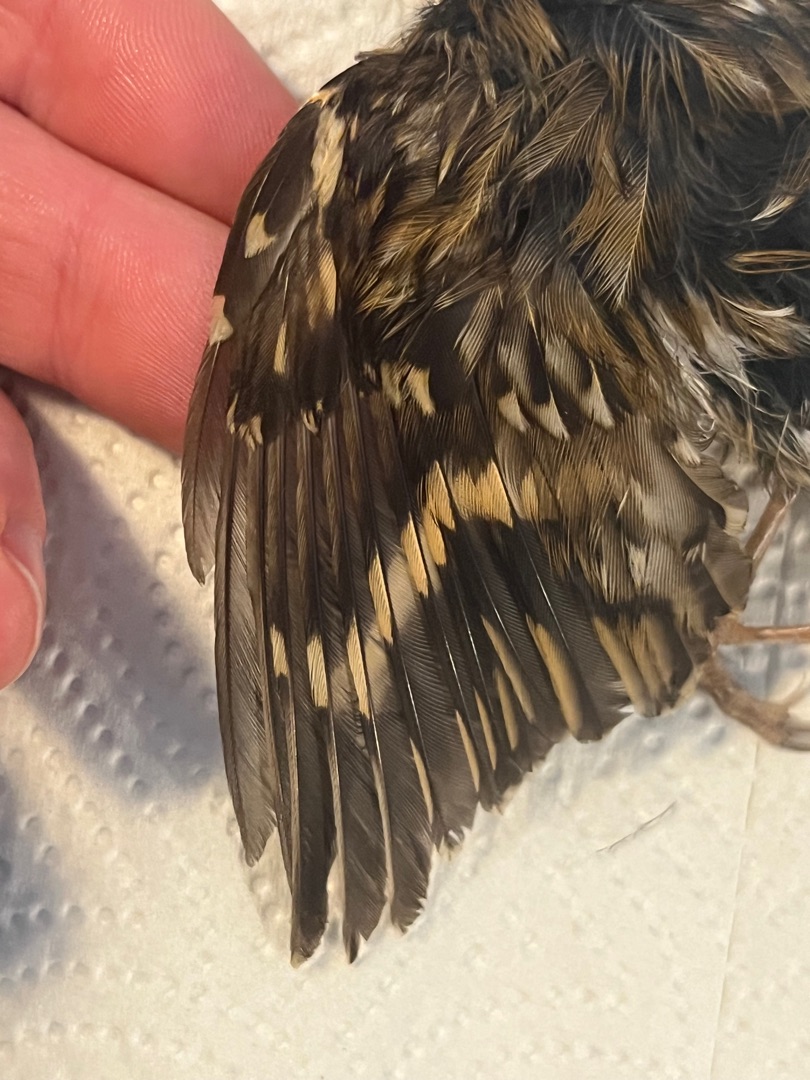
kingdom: Animalia
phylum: Chordata
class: Aves
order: Passeriformes
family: Certhiidae
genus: Certhia
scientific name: Certhia familiaris
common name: Træløber
